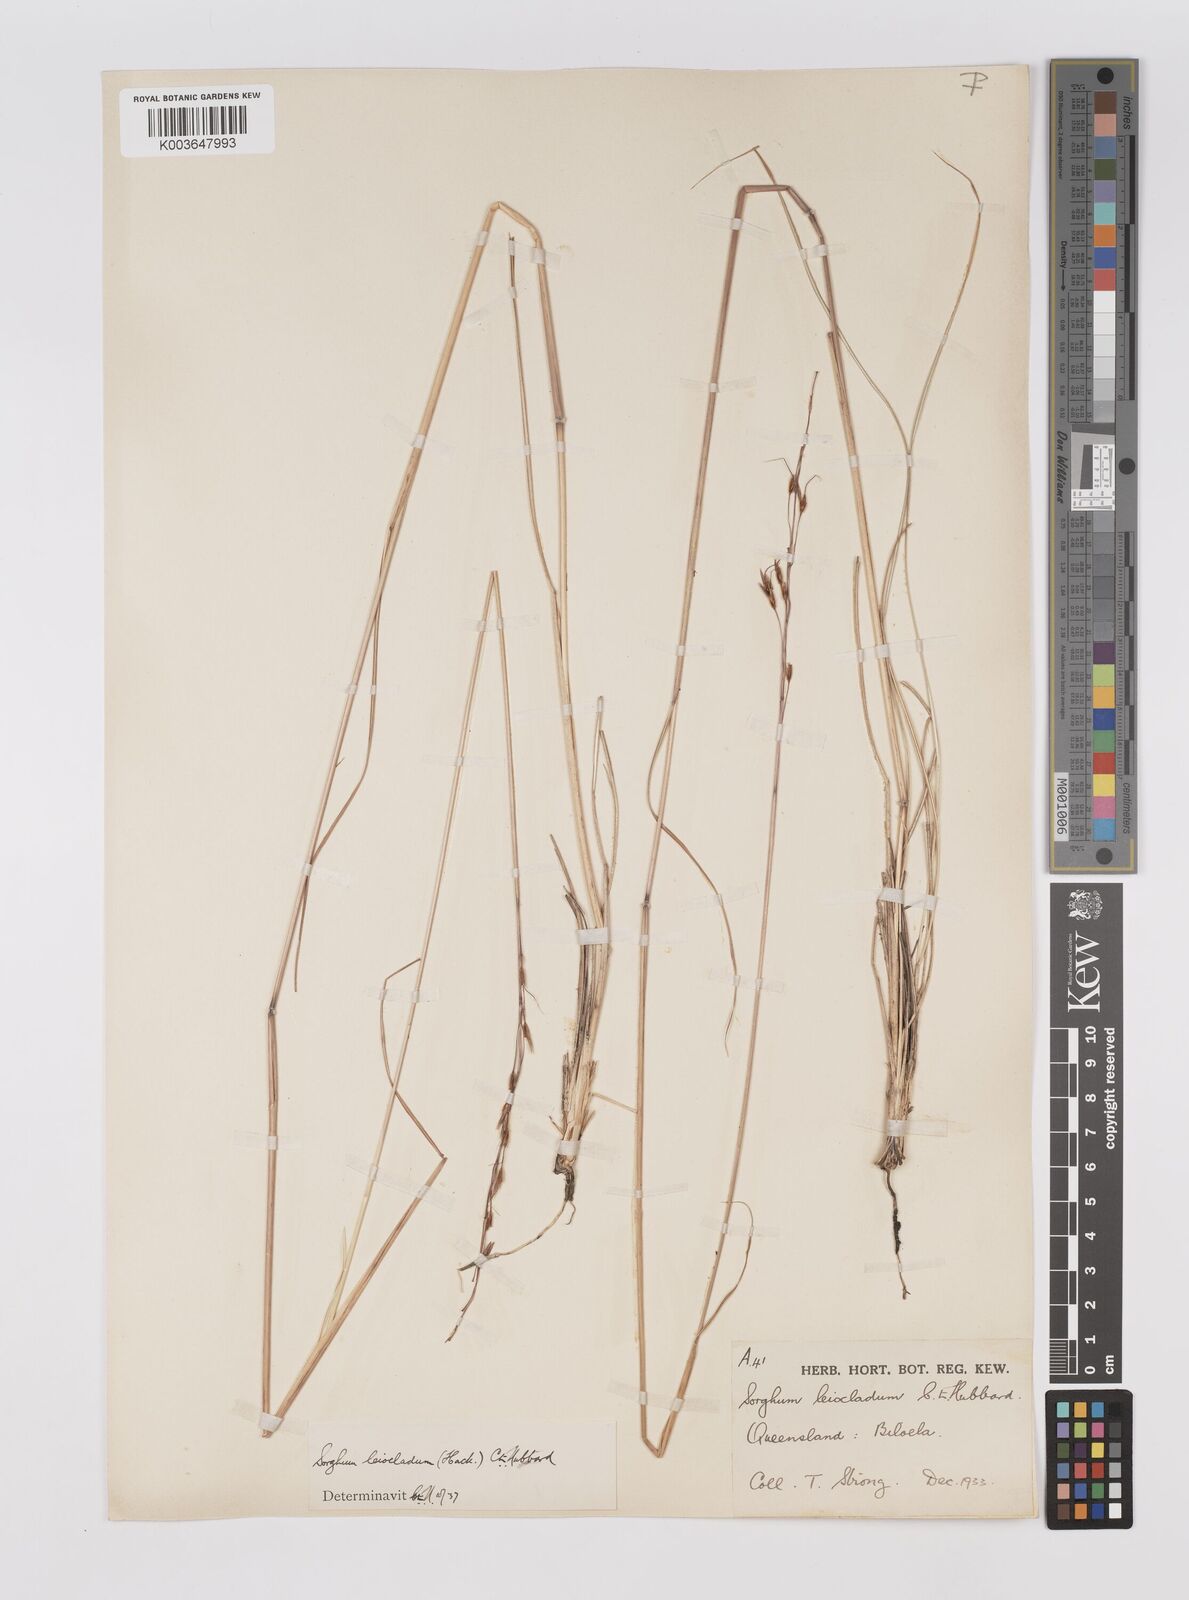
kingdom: Plantae
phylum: Tracheophyta
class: Liliopsida
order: Poales
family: Poaceae
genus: Sarga
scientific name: Sarga leioclada
